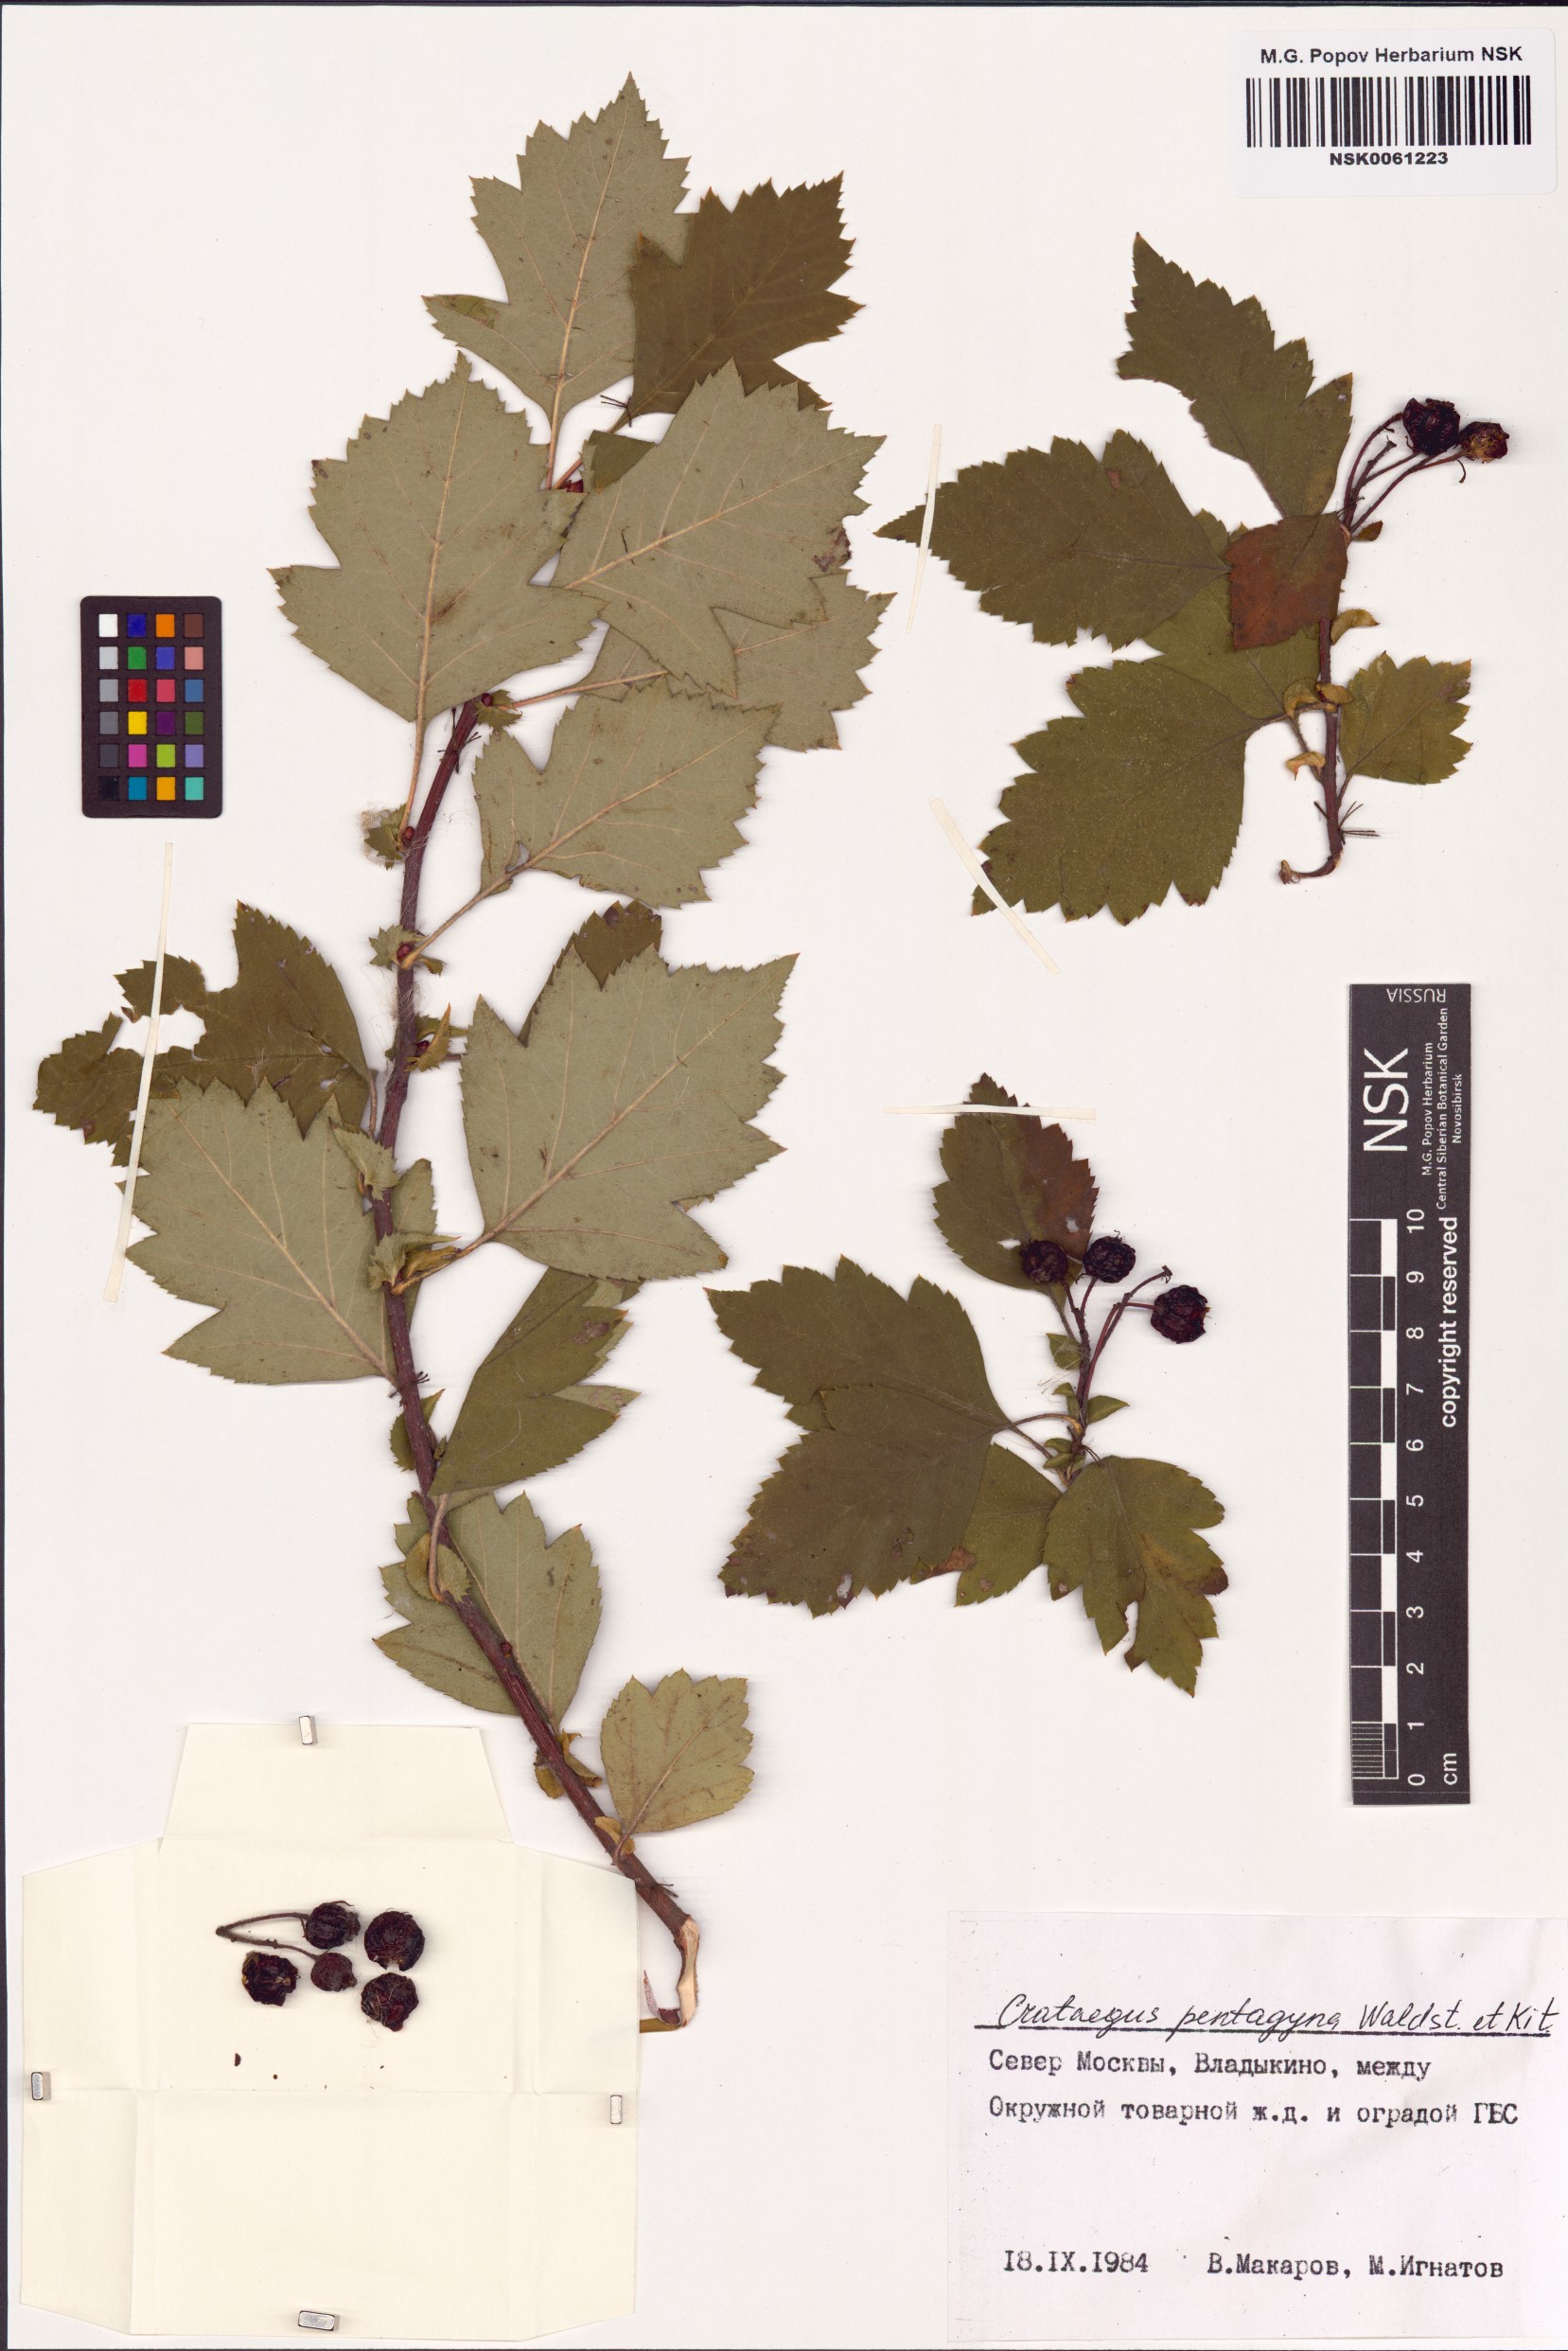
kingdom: Plantae
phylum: Tracheophyta
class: Magnoliopsida
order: Rosales
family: Rosaceae
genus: Crataegus
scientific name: Crataegus pentagyna
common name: Small-flowered black hawthorn
